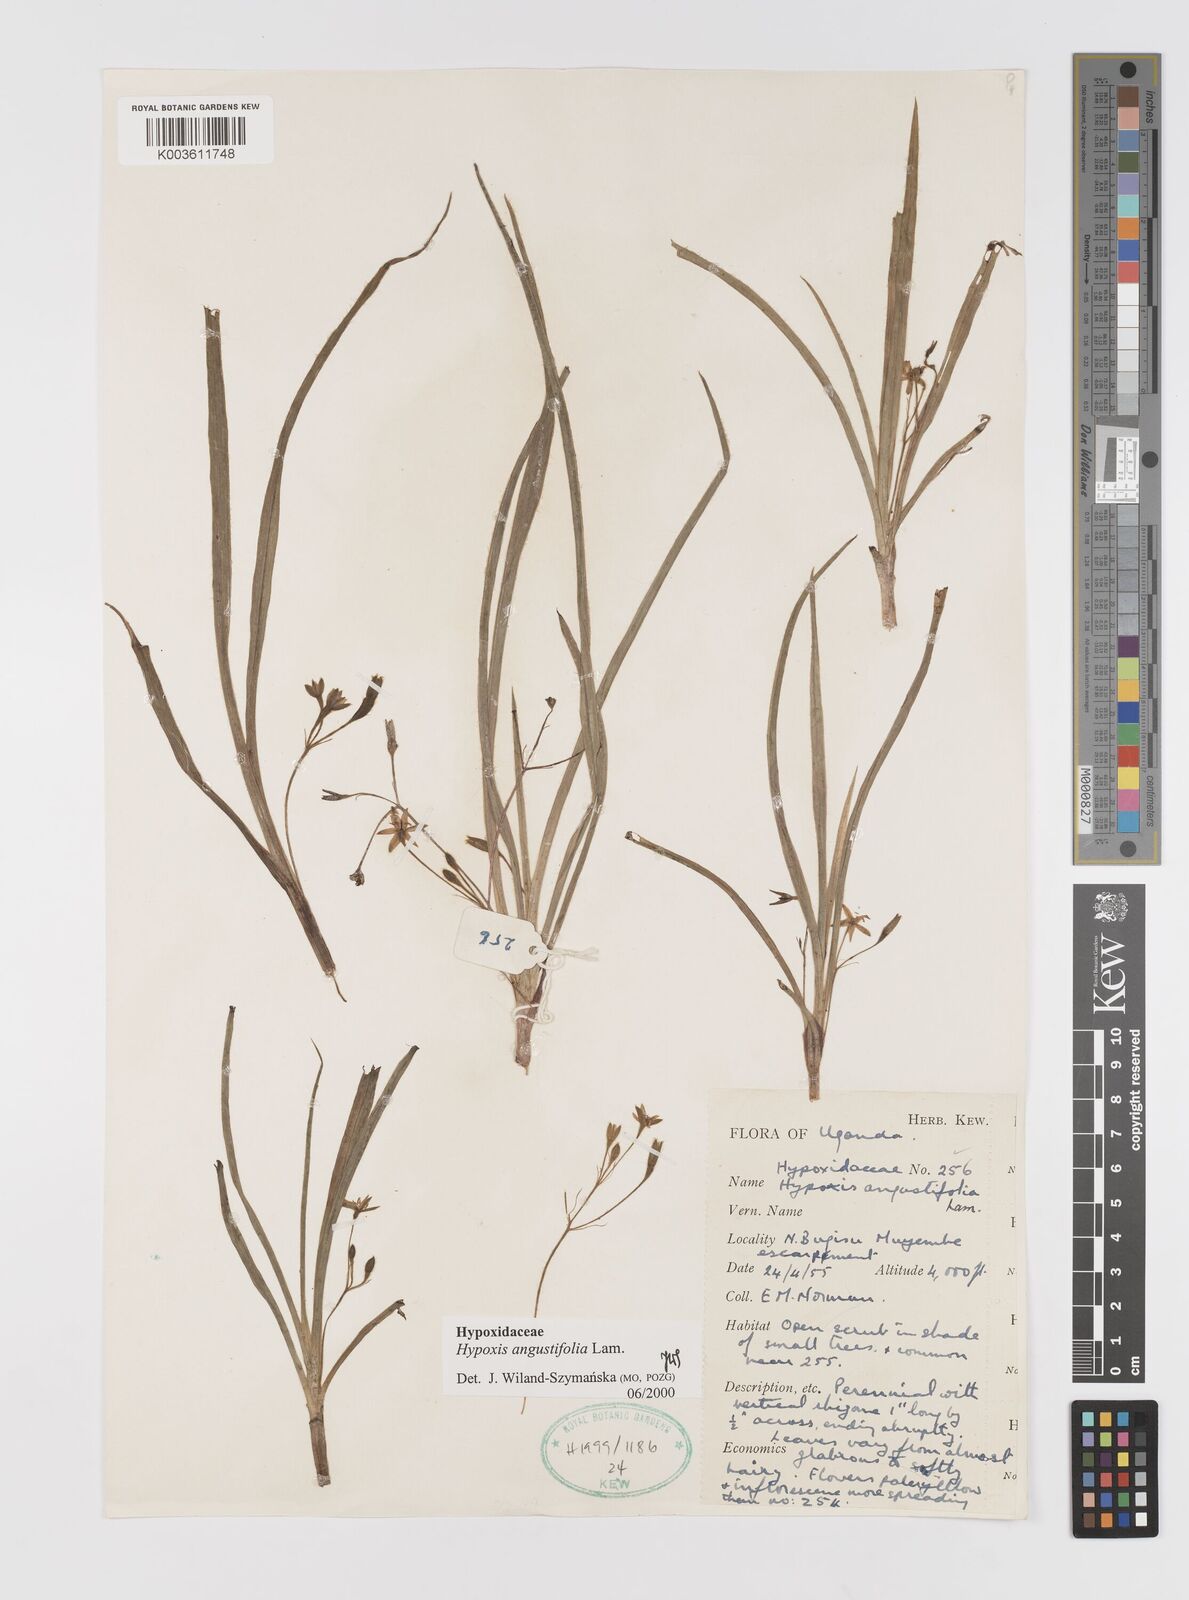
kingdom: Plantae
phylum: Tracheophyta
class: Liliopsida
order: Asparagales
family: Hypoxidaceae
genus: Hypoxis
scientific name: Hypoxis angustifolia
